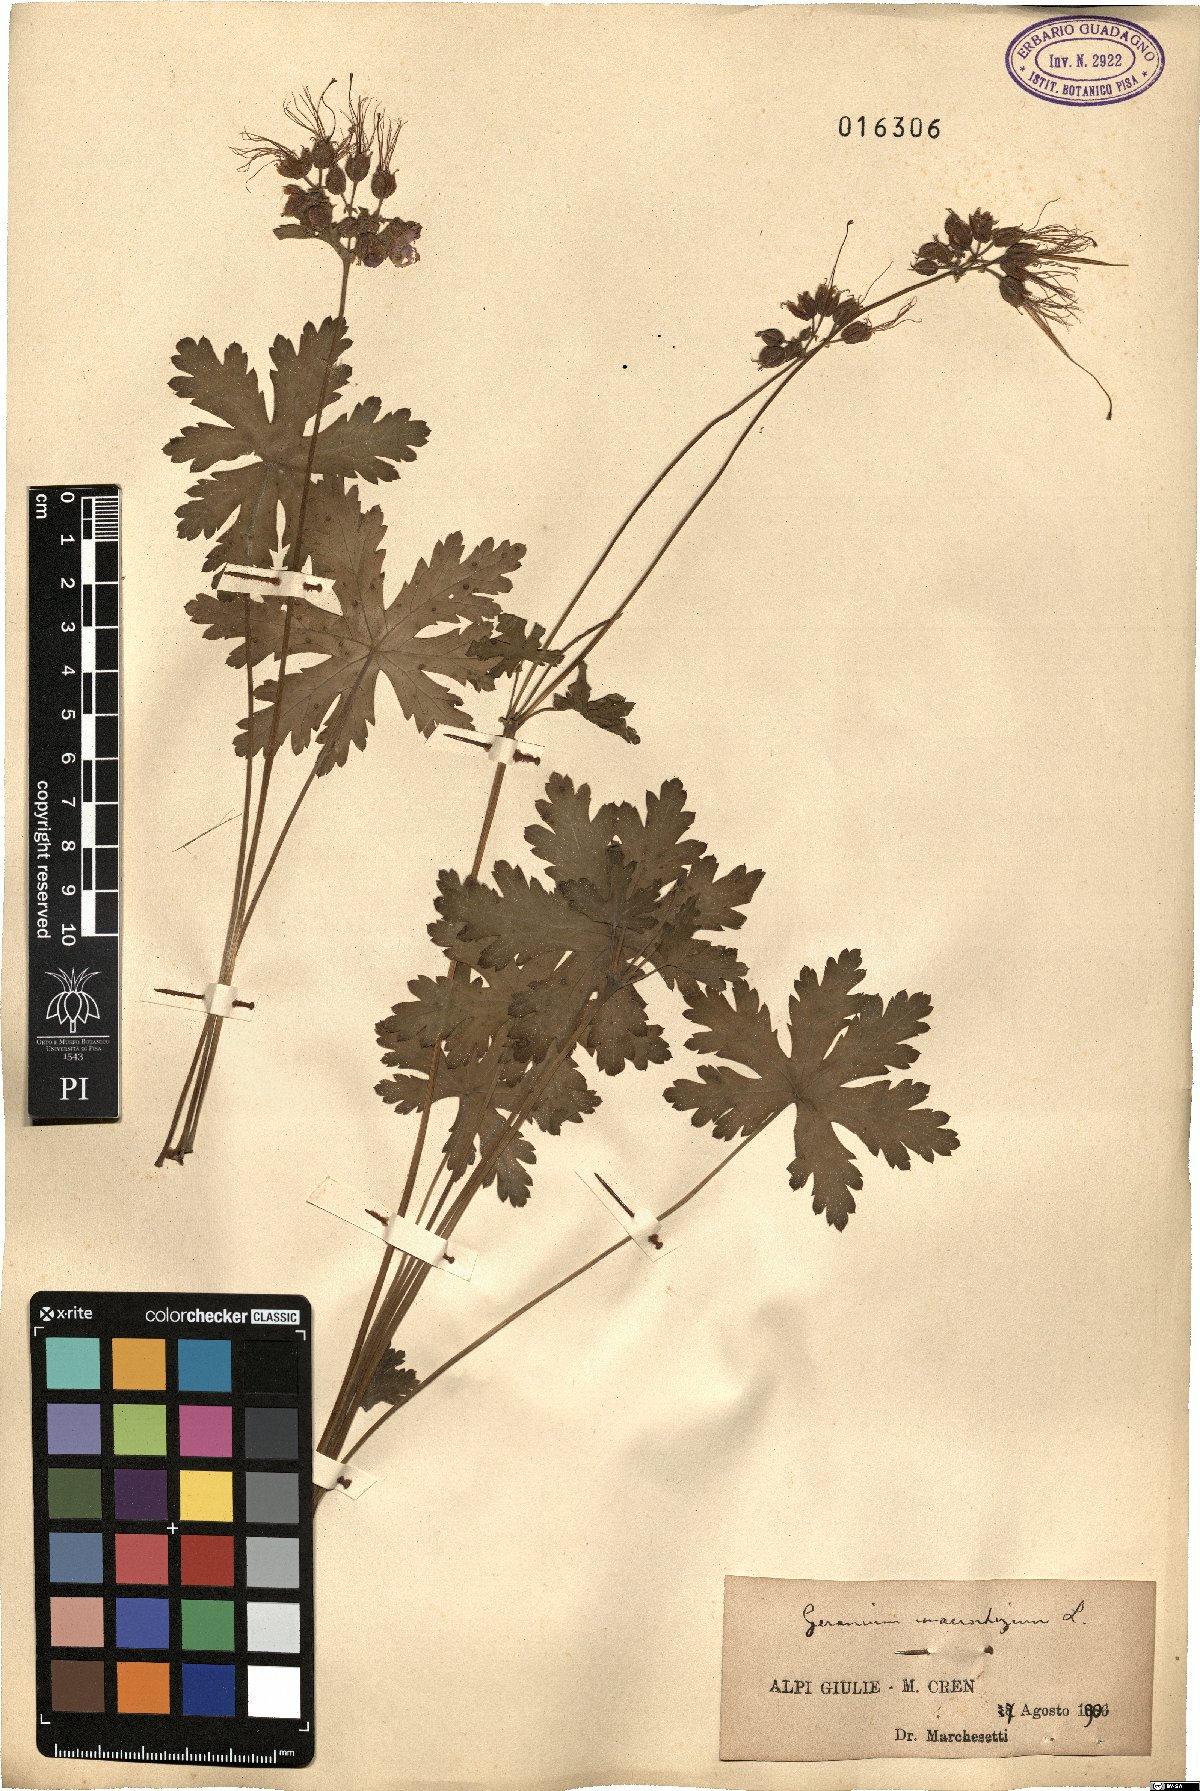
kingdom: Plantae
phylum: Tracheophyta
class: Magnoliopsida
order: Geraniales
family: Geraniaceae
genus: Geranium
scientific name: Geranium macrorrhizum
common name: Rock crane's-bill
